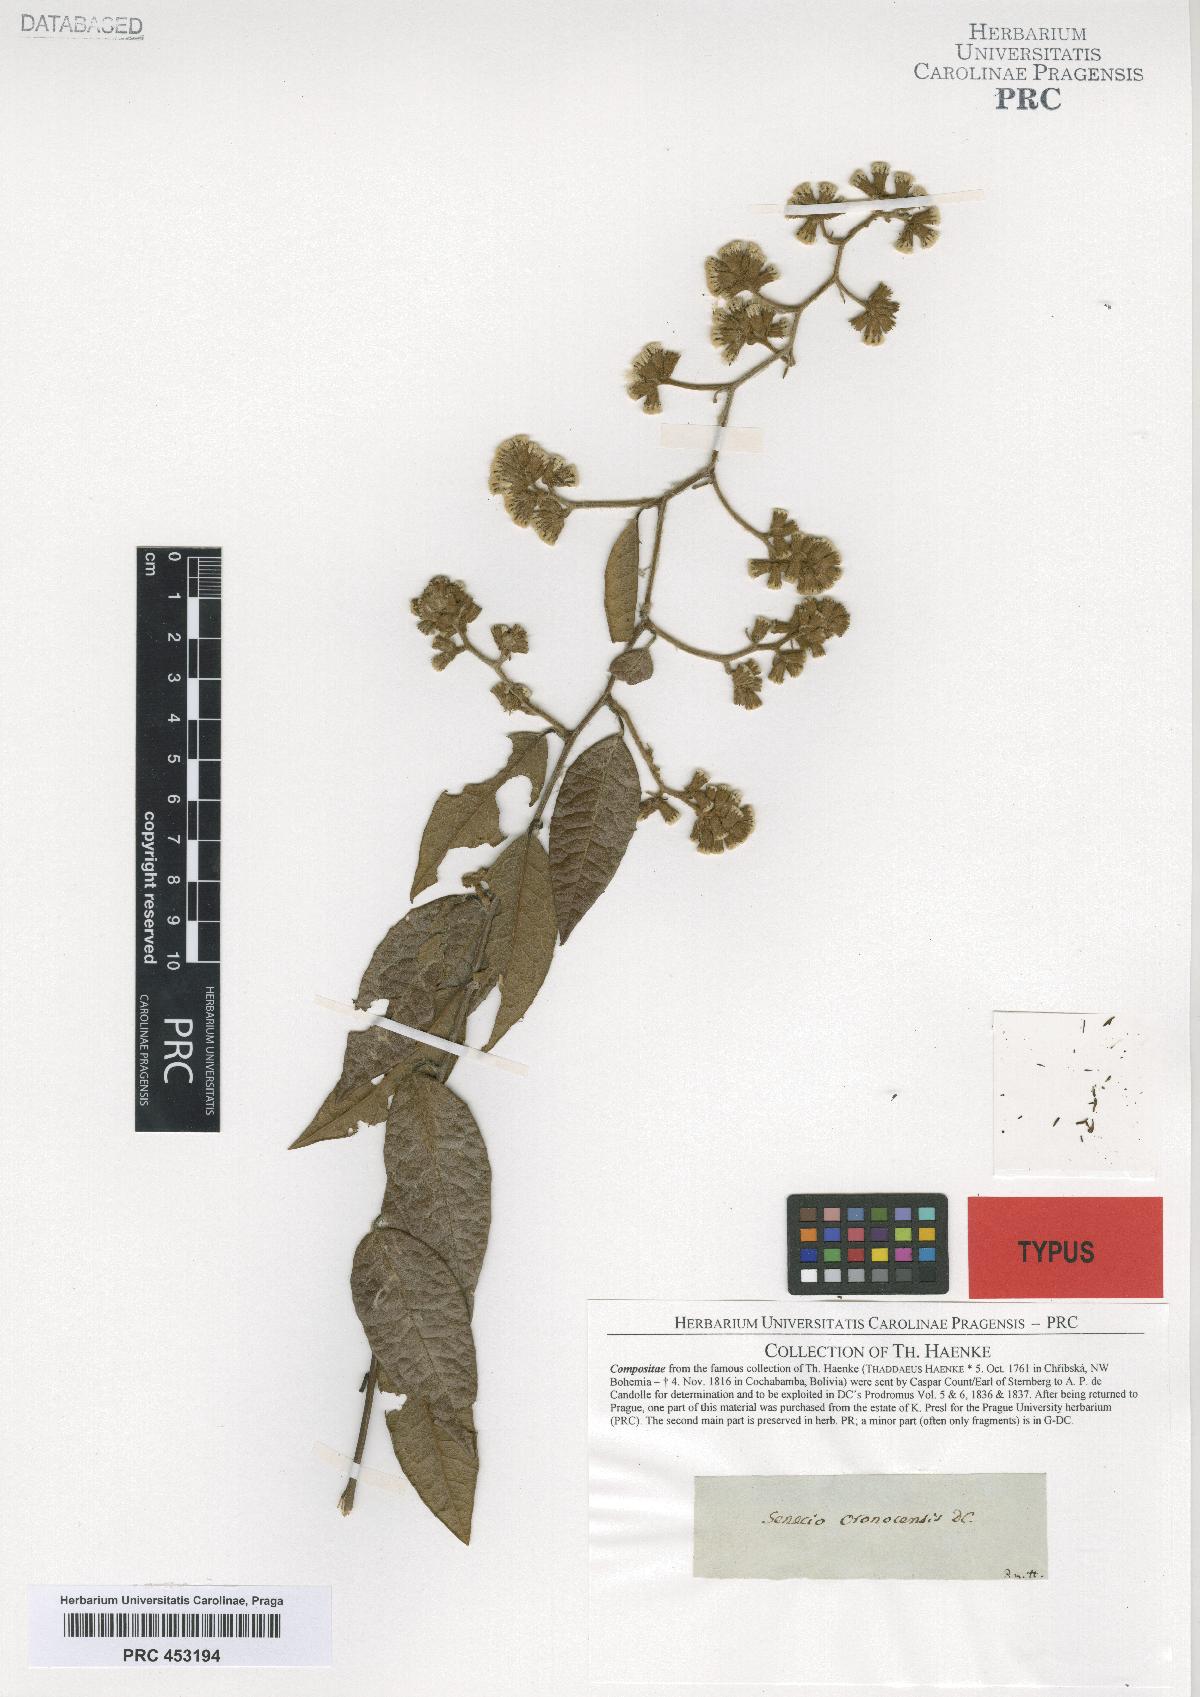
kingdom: Plantae
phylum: Tracheophyta
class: Magnoliopsida
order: Asterales
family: Asteraceae
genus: Pentacalia
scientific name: Pentacalia oronocensis
